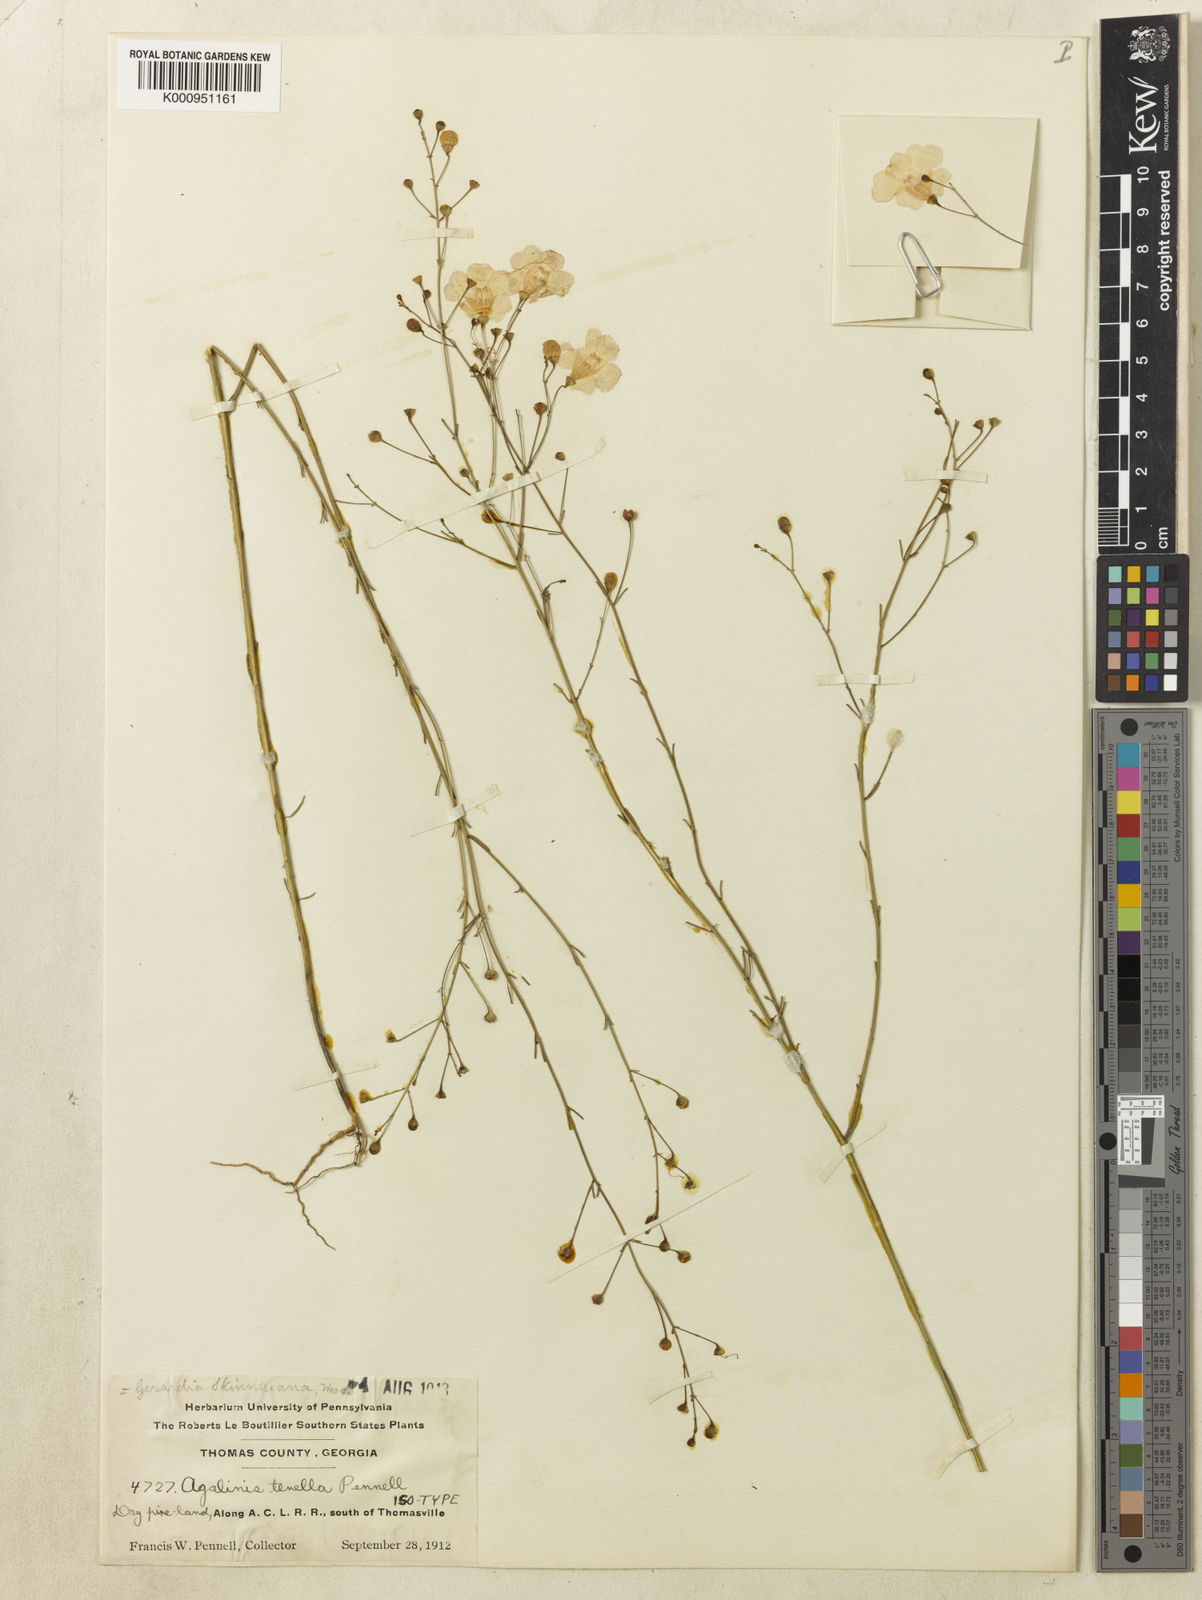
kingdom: Plantae
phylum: Tracheophyta
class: Magnoliopsida
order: Lamiales
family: Orobanchaceae
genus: Agalinis
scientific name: Agalinis tenella
